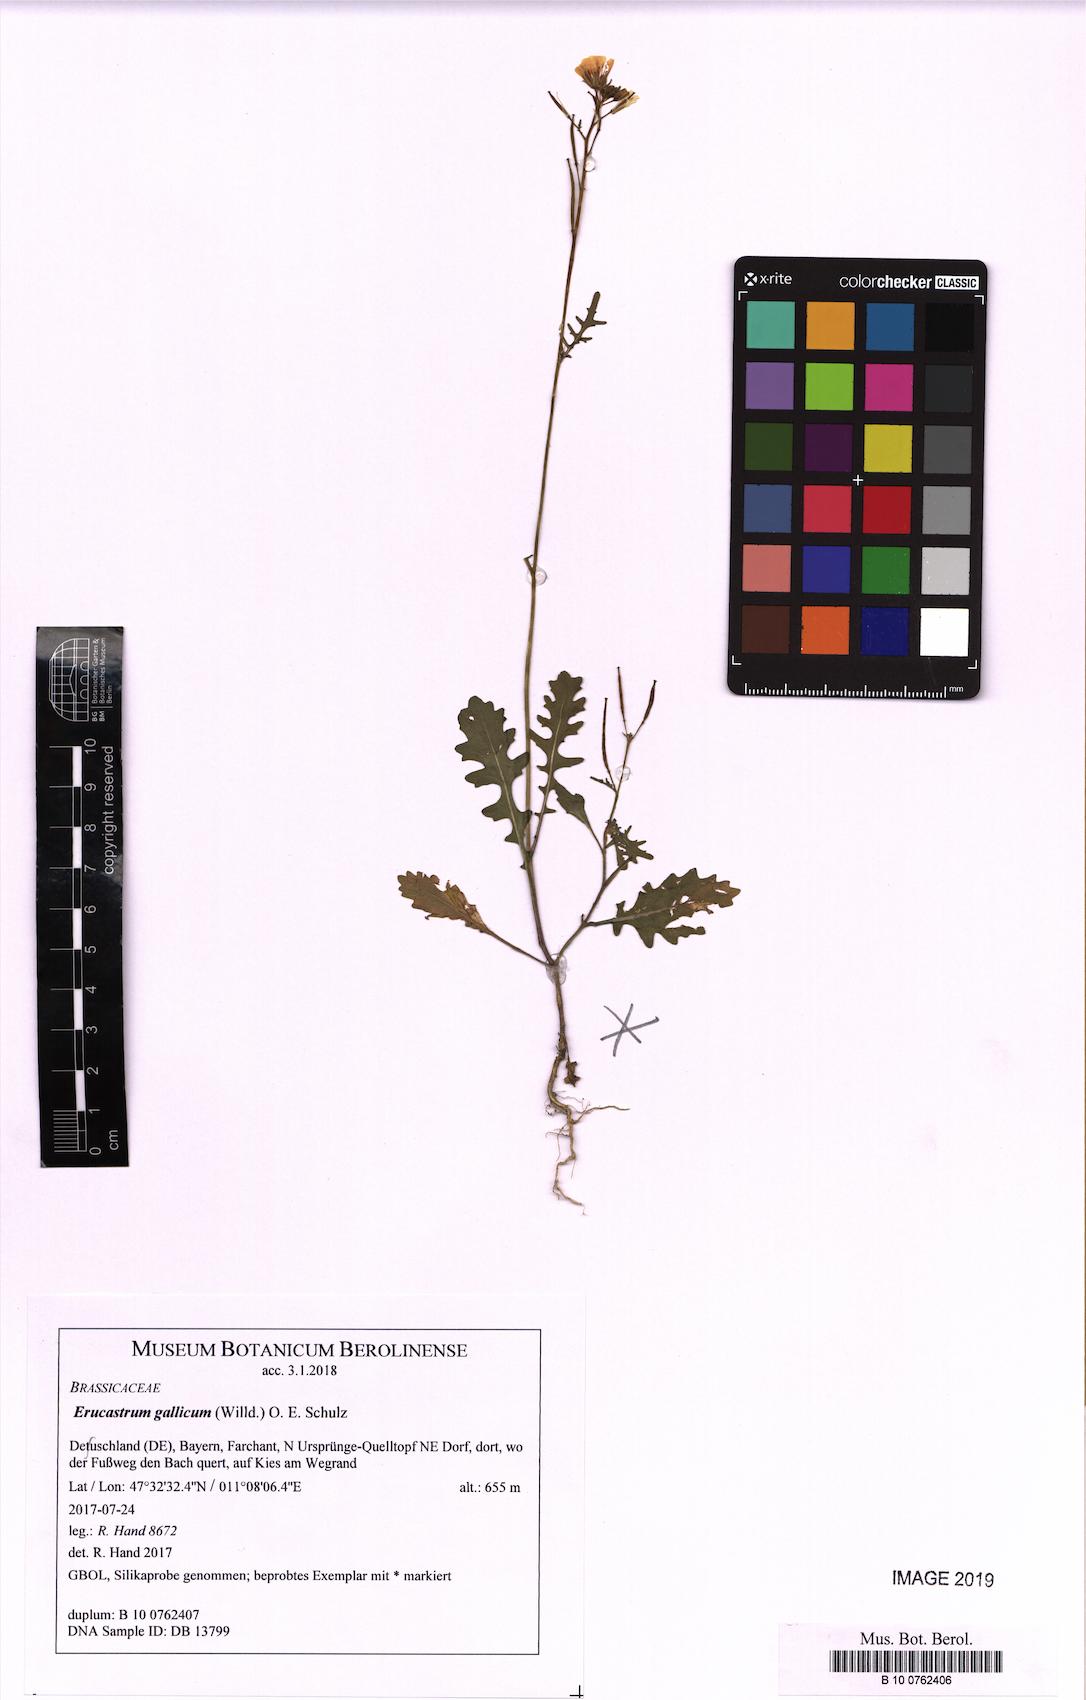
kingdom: Plantae
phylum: Tracheophyta
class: Magnoliopsida
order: Brassicales
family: Brassicaceae
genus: Erucastrum
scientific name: Erucastrum gallicum
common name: Hairy rocket
